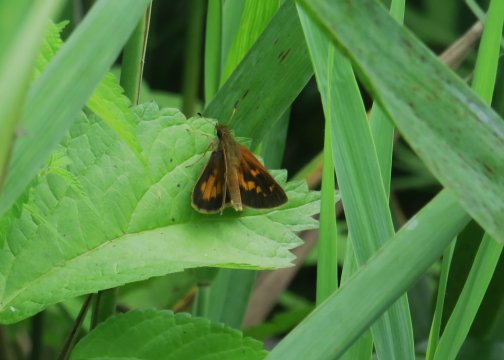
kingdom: Animalia
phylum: Arthropoda
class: Insecta
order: Lepidoptera
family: Hesperiidae
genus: Poanes
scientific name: Poanes viator
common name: Broad-winged Skipper
